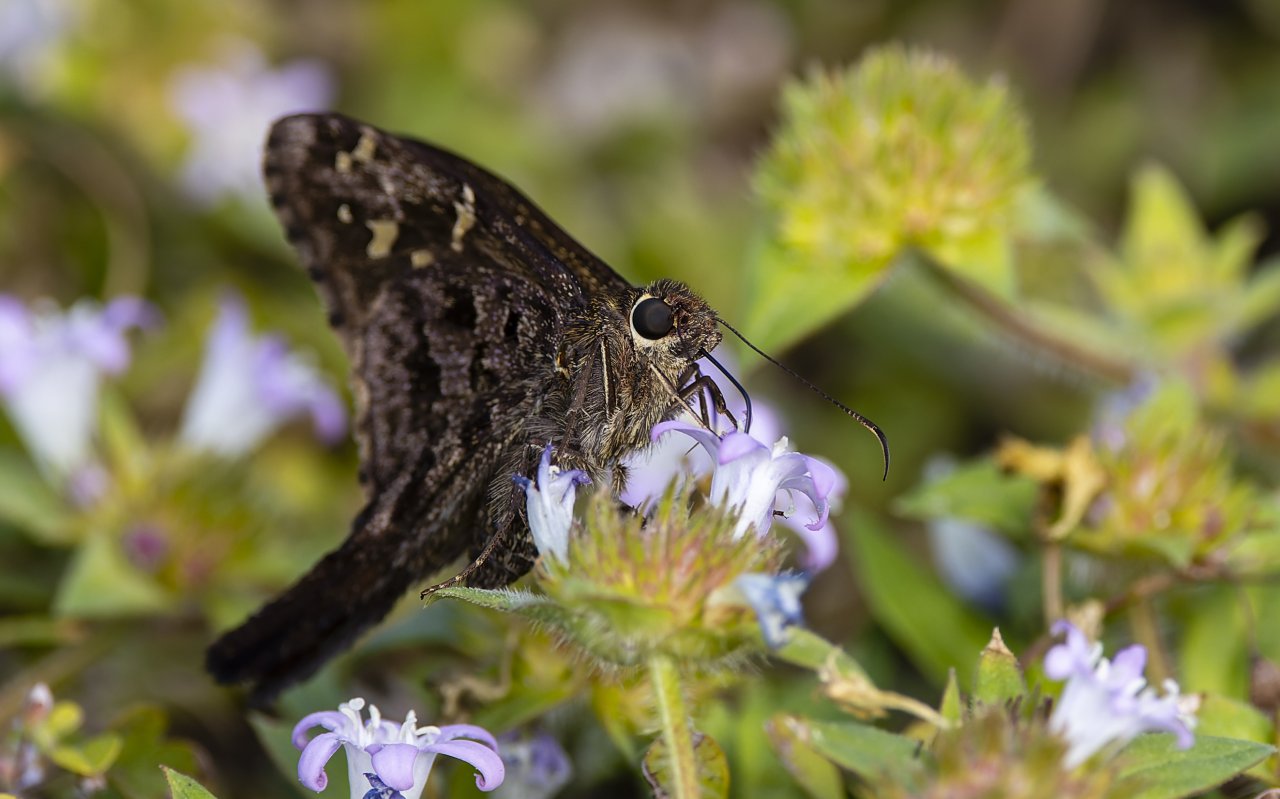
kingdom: Animalia
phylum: Arthropoda
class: Insecta
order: Lepidoptera
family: Hesperiidae
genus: Urbanus
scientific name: Urbanus proteus
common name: Long-tailed Skipper
